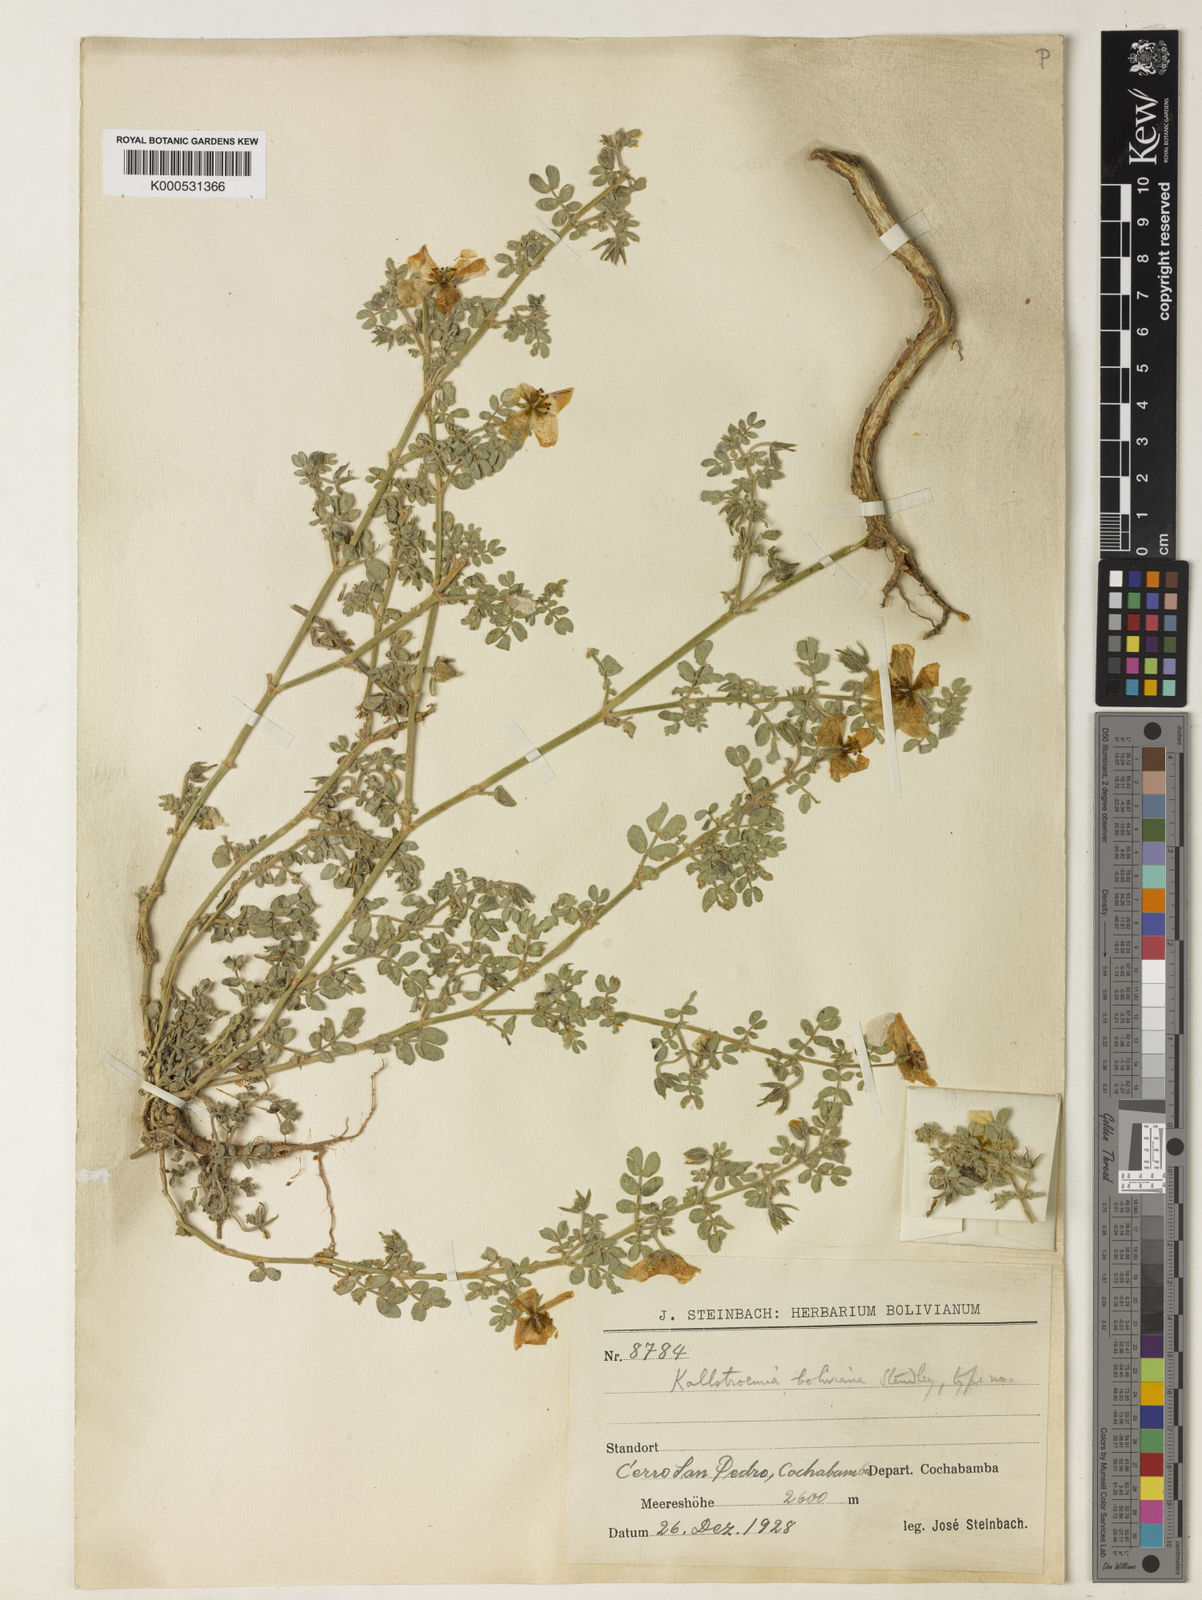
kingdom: Plantae
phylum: Tracheophyta
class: Magnoliopsida
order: Zygophyllales
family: Zygophyllaceae
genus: Kallstroemia
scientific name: Kallstroemia boliviana
